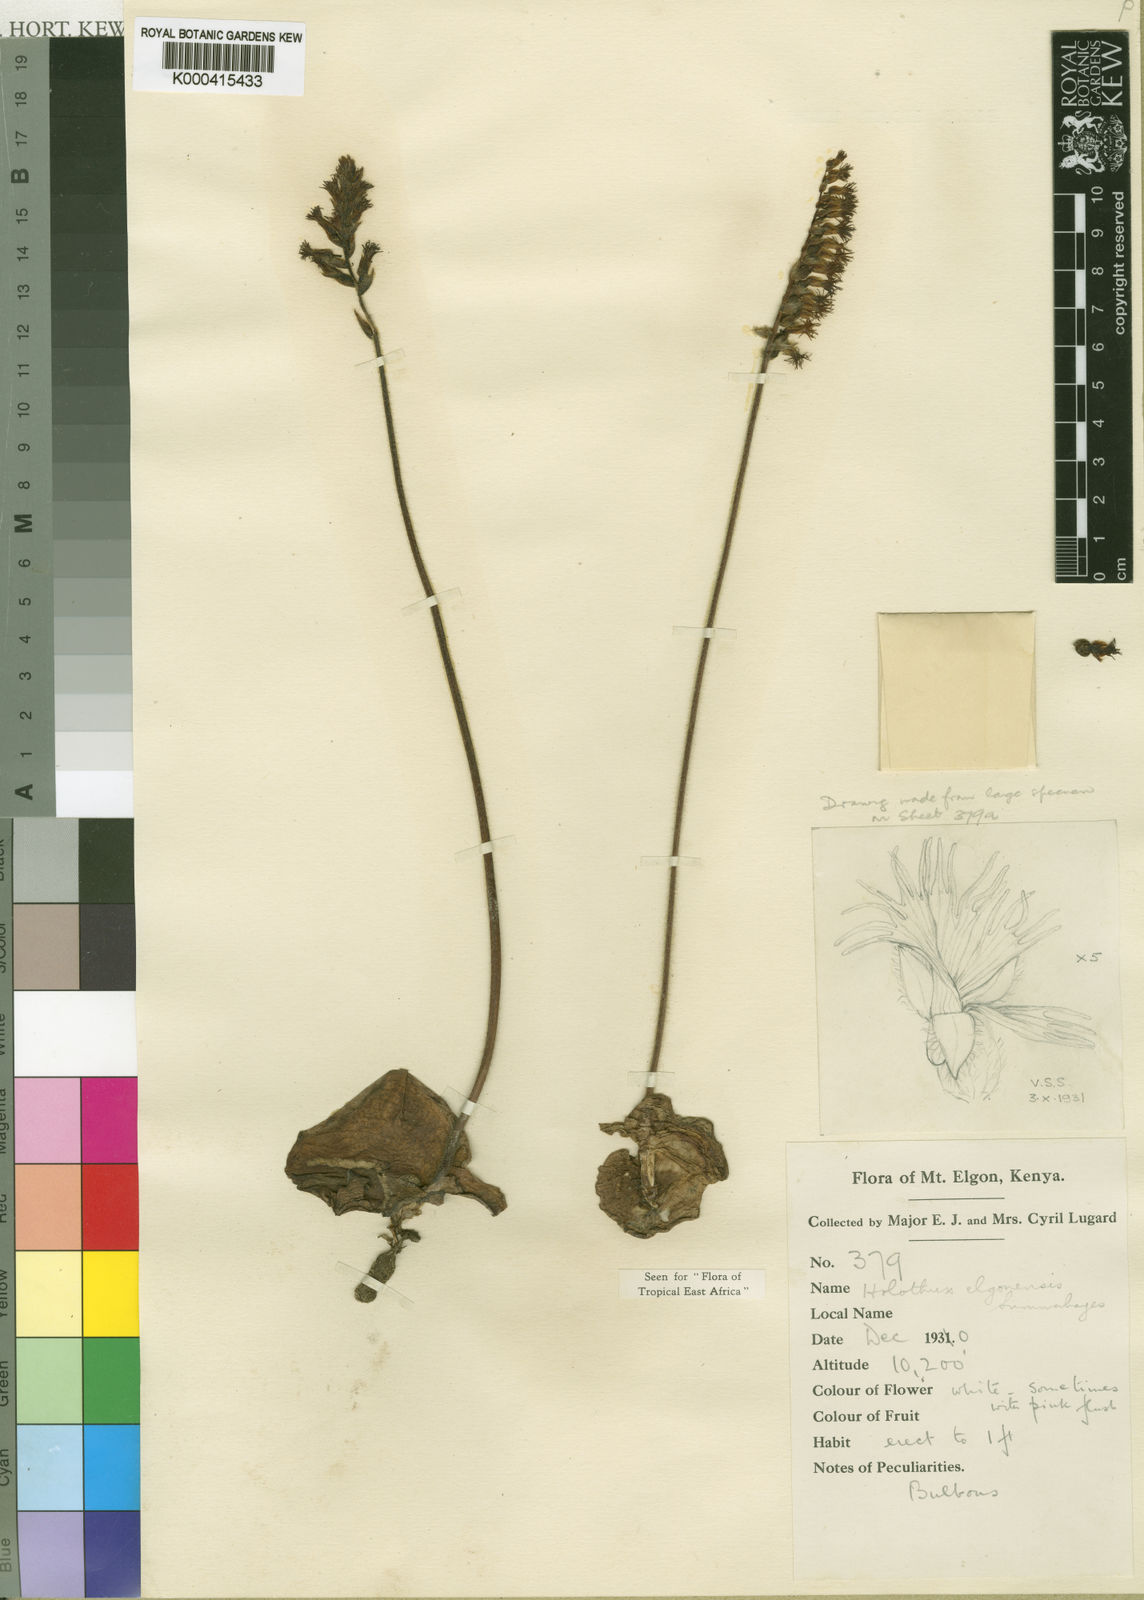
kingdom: Plantae
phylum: Tracheophyta
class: Liliopsida
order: Asparagales
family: Orchidaceae
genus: Holothrix
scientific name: Holothrix elgonensis
